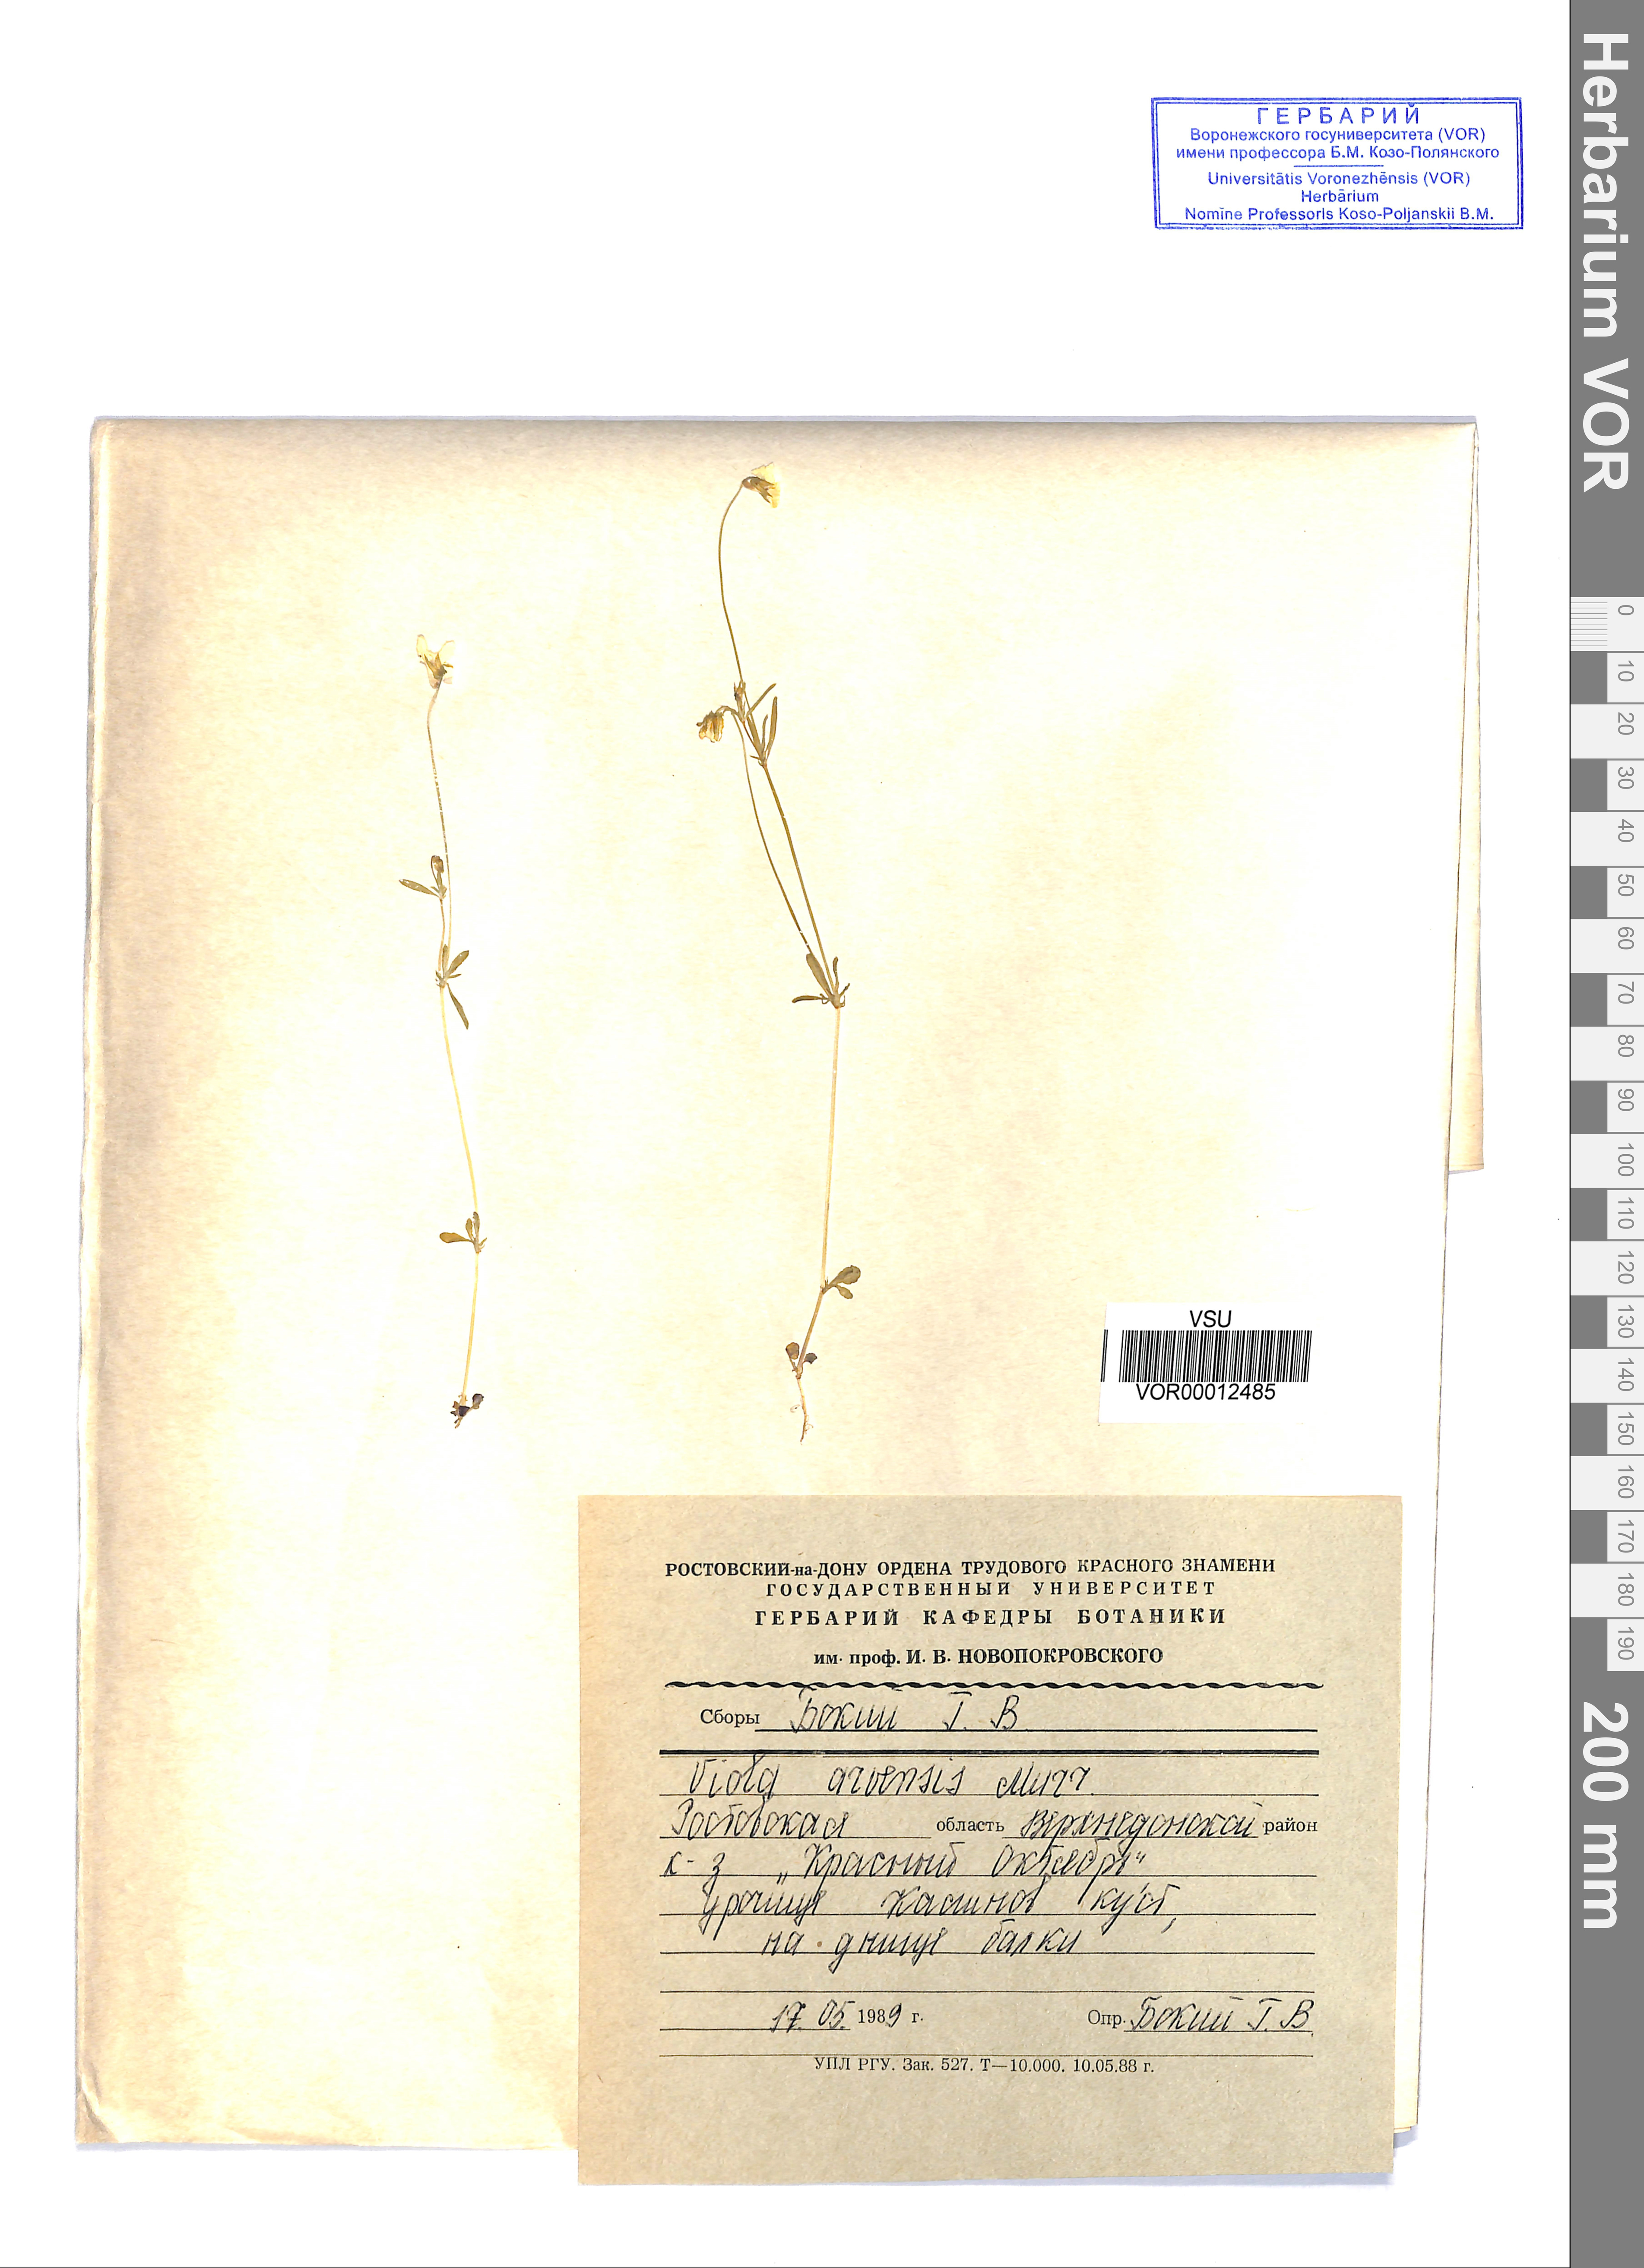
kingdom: Plantae
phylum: Tracheophyta
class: Magnoliopsida
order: Malpighiales
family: Violaceae
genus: Viola
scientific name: Viola arvensis
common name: Field pansy
